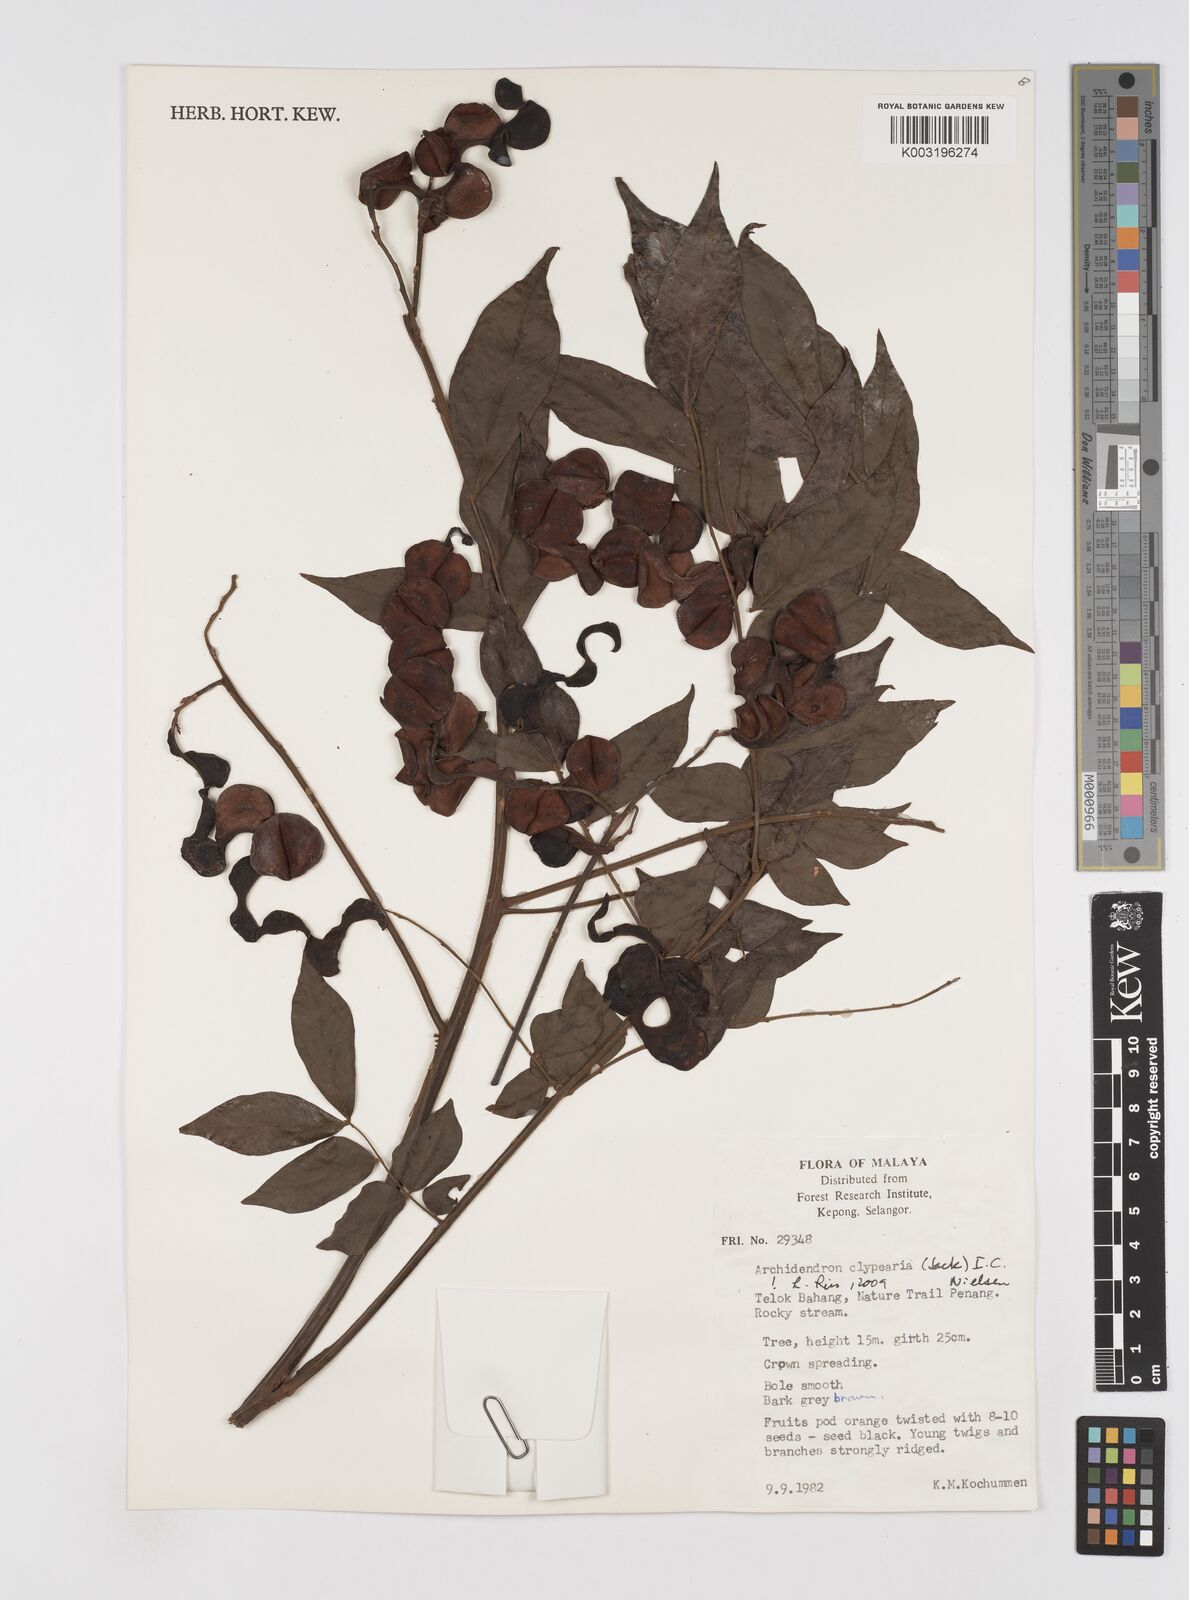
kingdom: Plantae
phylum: Tracheophyta
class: Magnoliopsida
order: Fabales
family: Fabaceae
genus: Archidendron
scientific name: Archidendron clypearia
